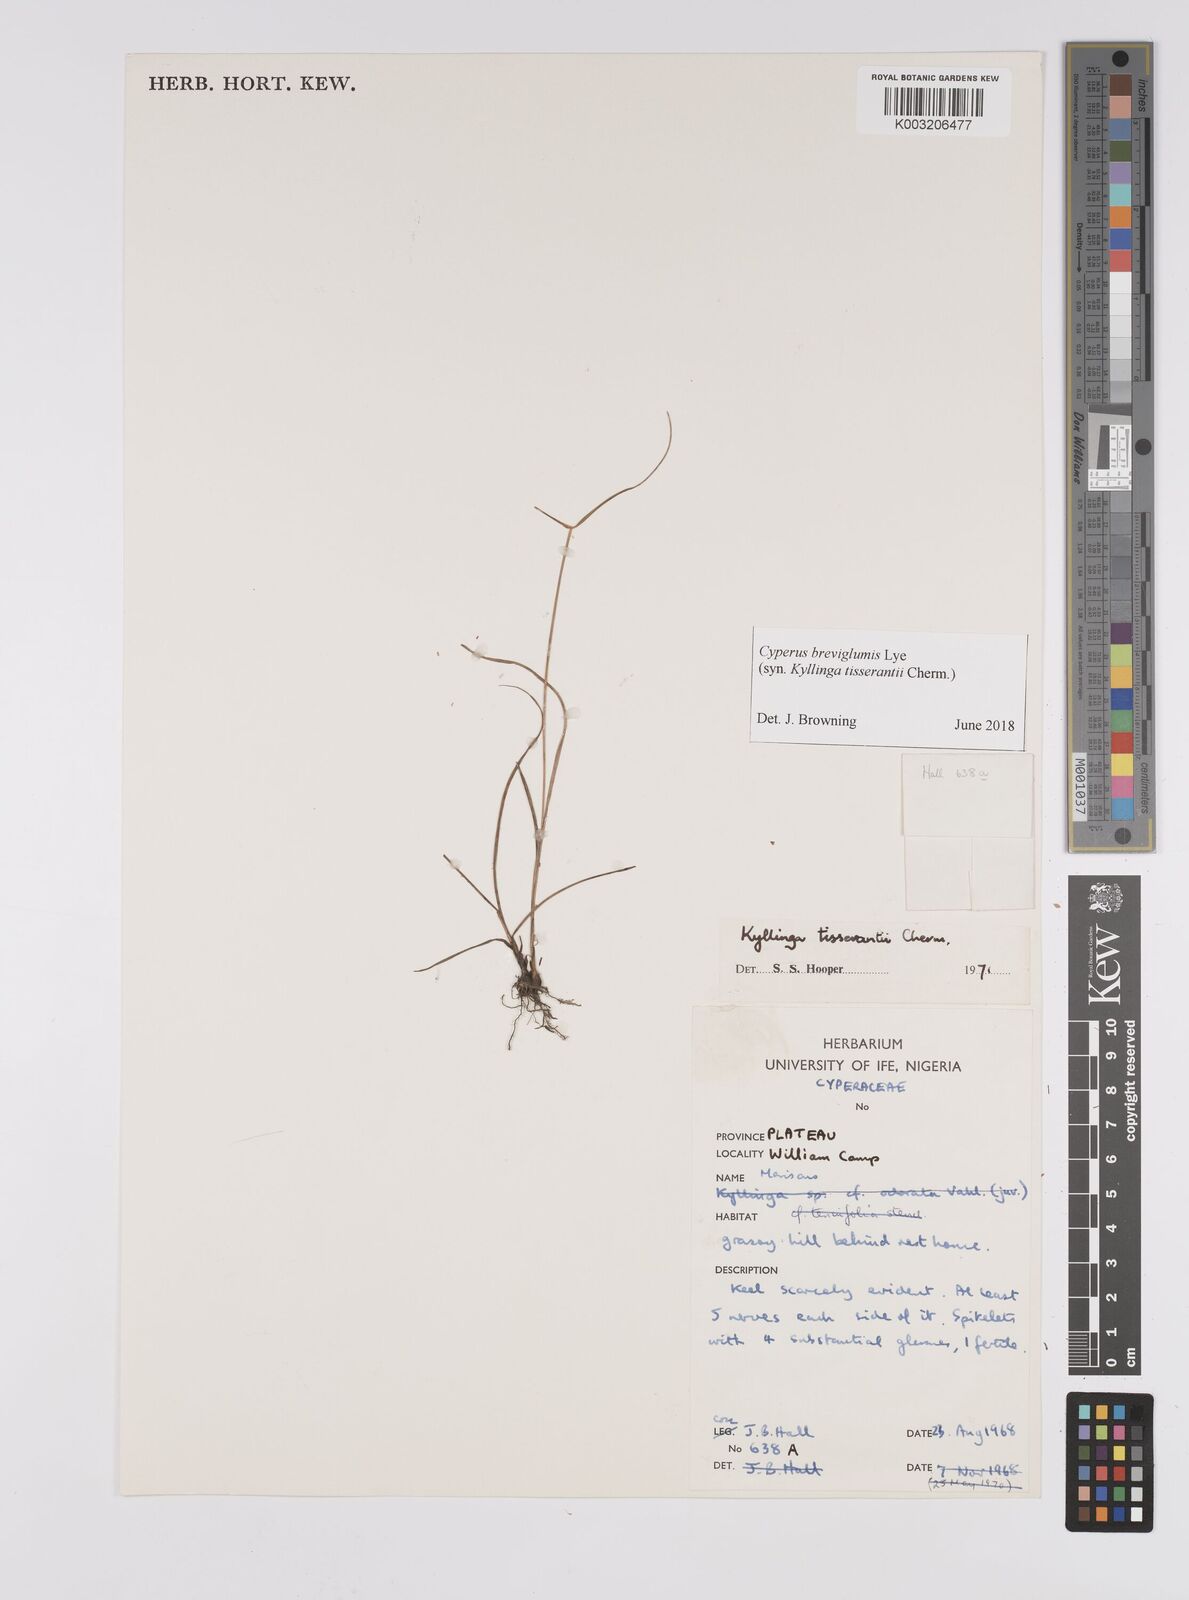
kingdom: Plantae
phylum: Tracheophyta
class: Liliopsida
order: Poales
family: Cyperaceae
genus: Cyperus
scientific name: Cyperus niveus
